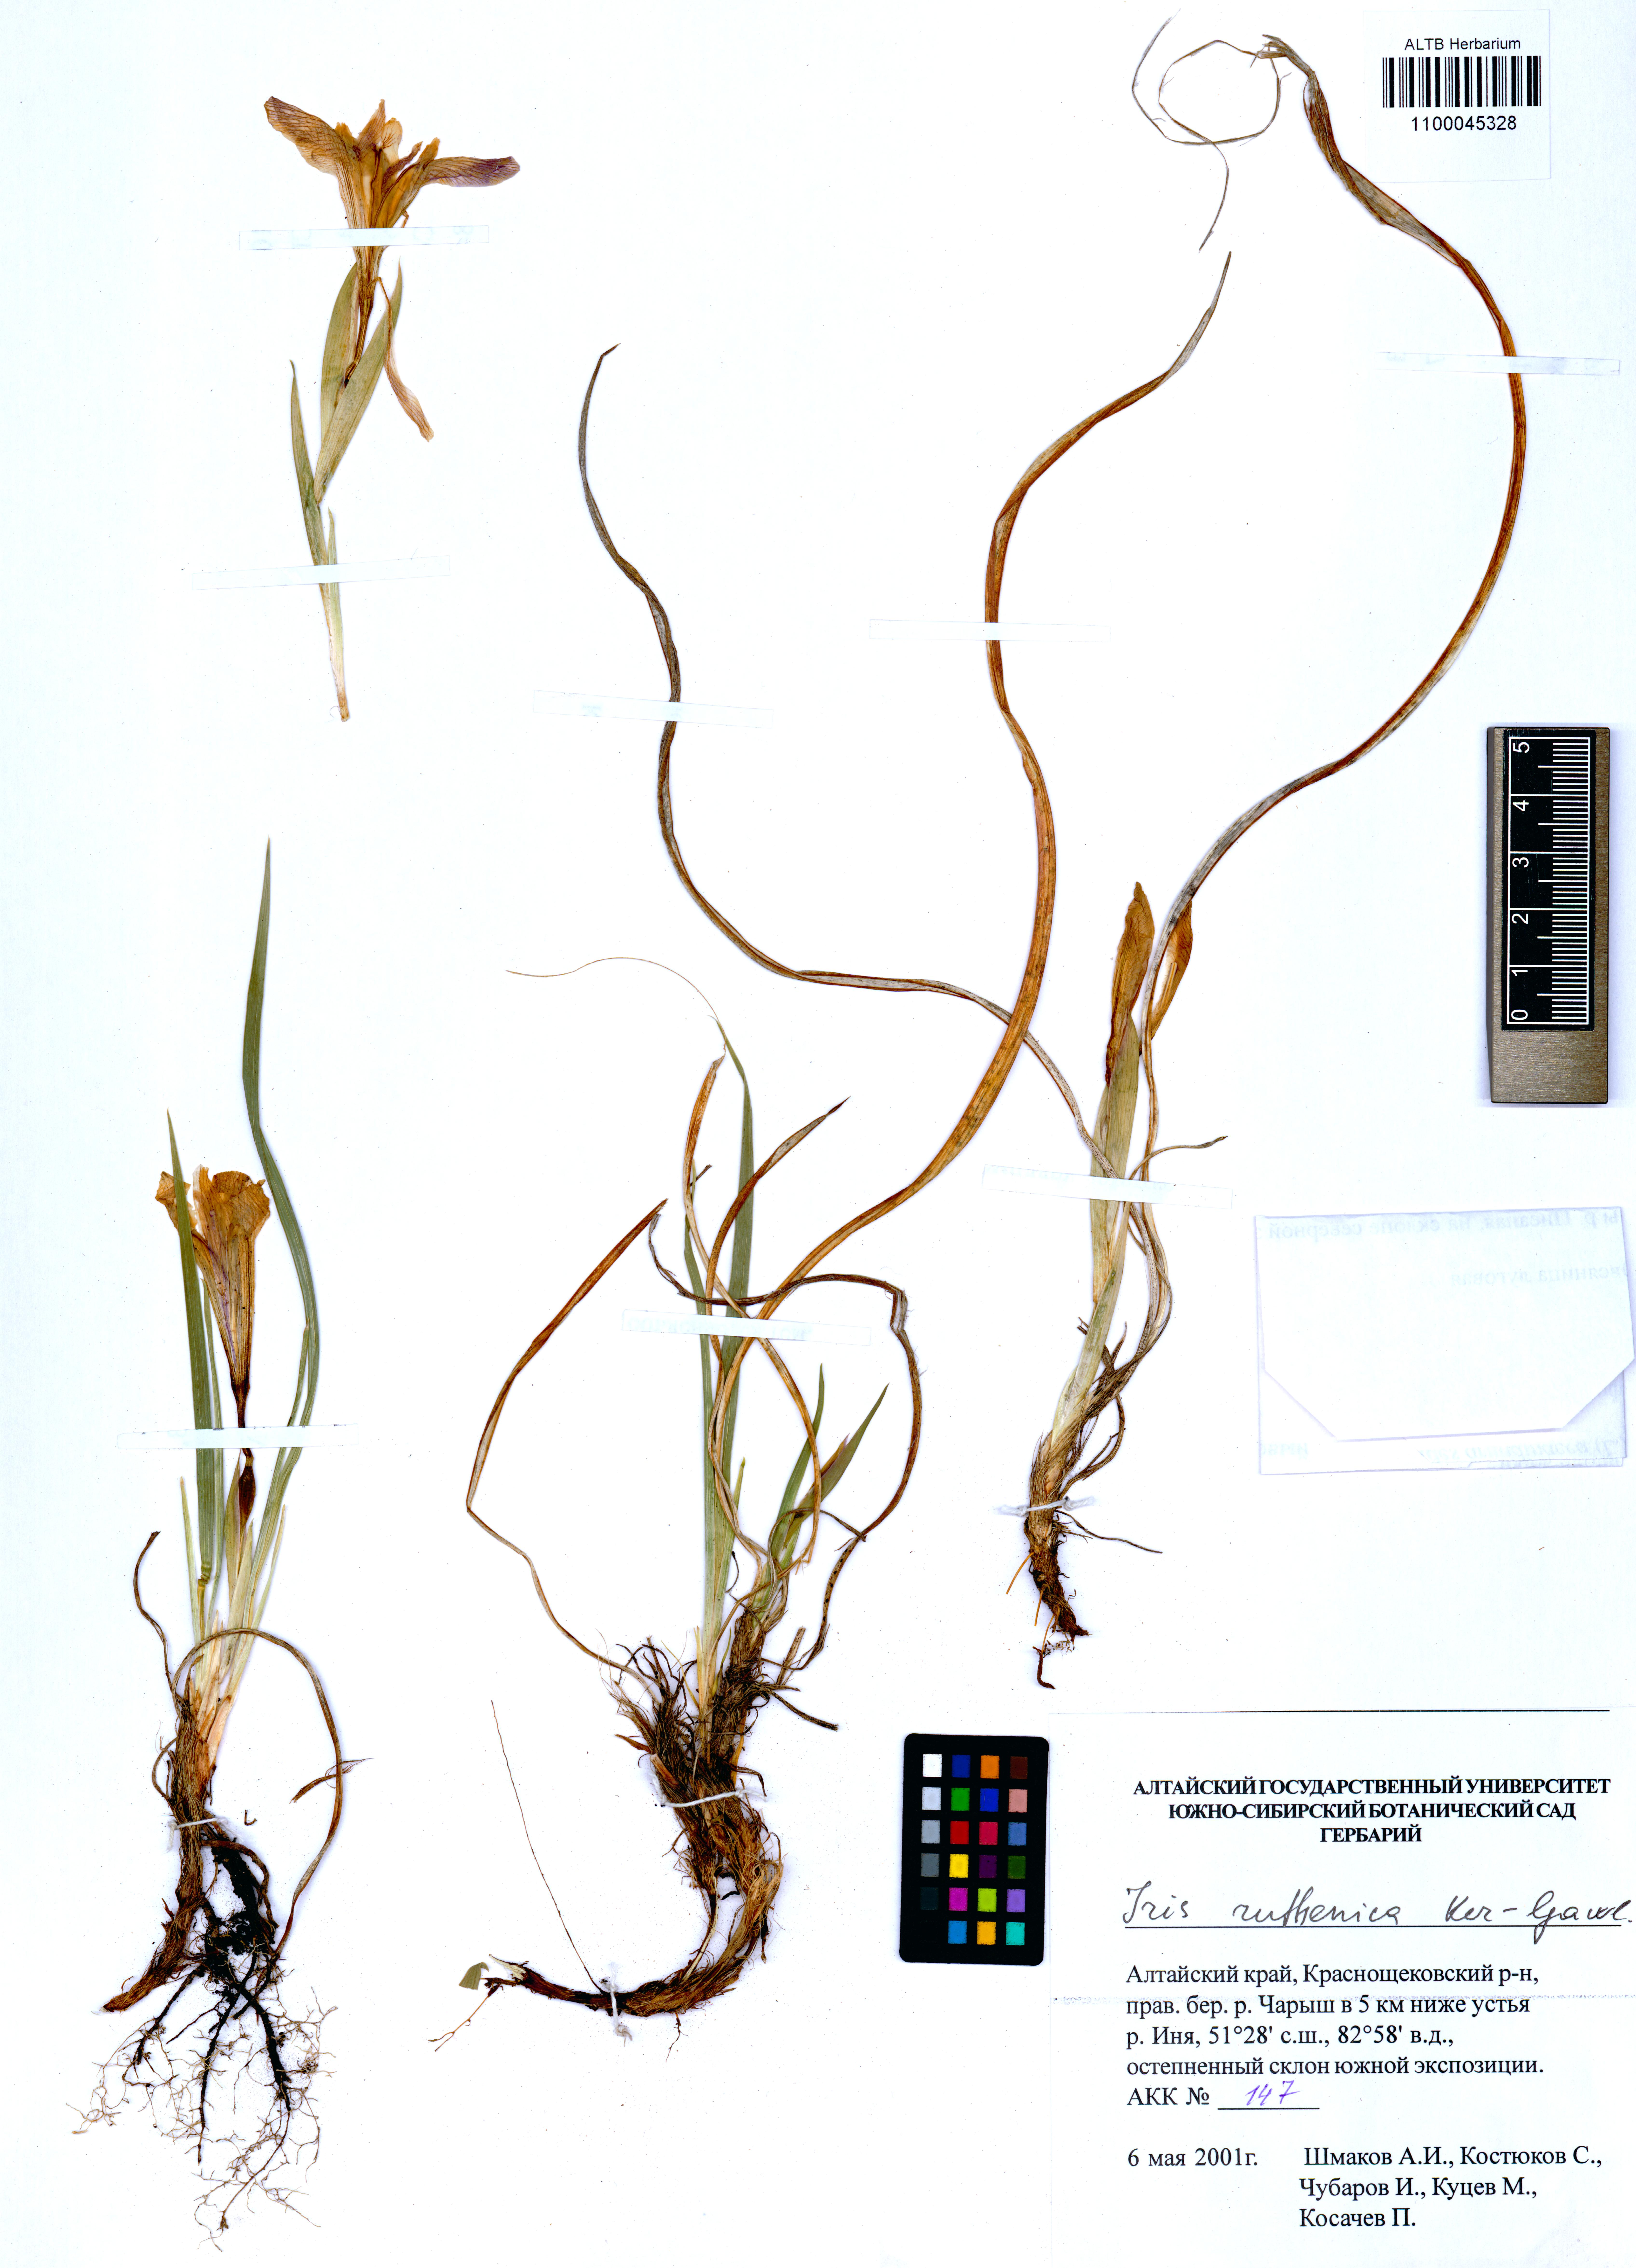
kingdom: Plantae
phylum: Tracheophyta
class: Liliopsida
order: Asparagales
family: Iridaceae
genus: Iris
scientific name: Iris ruthenica
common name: Purple-bract iris
